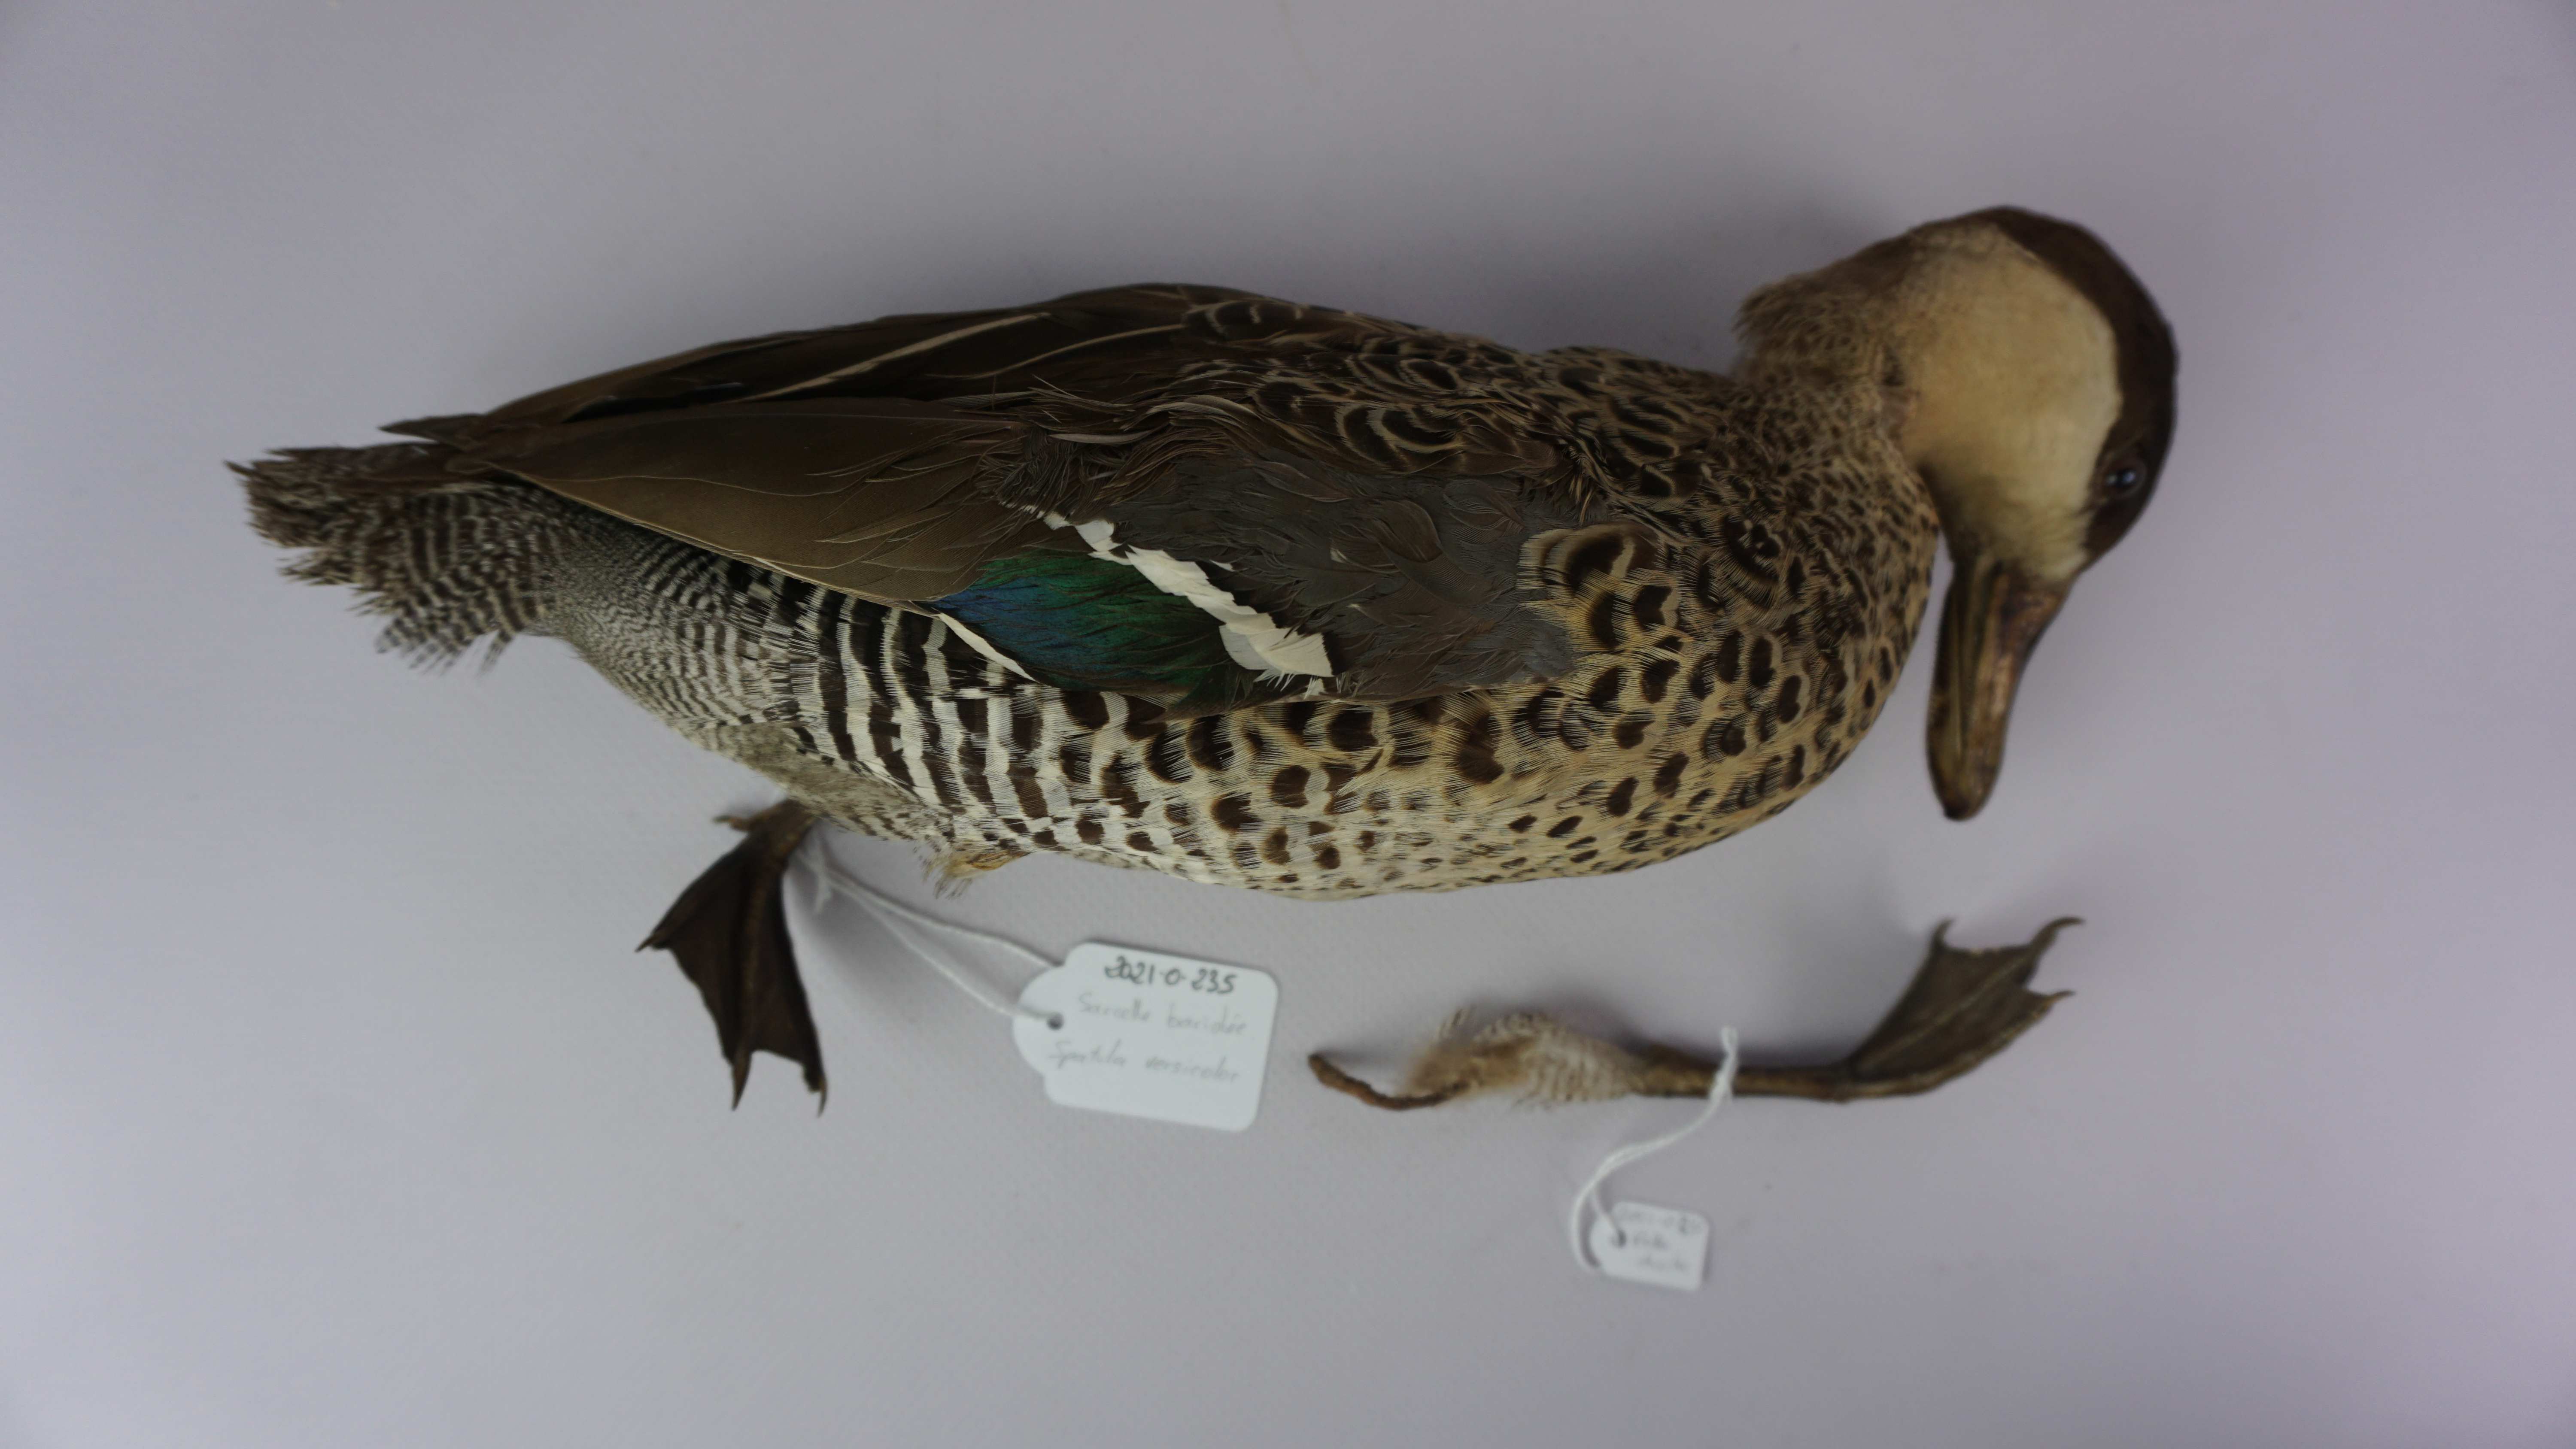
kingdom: Animalia
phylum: Chordata
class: Aves
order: Anseriformes
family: Anatidae
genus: Spatula
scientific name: Spatula versicolor
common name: Silver teal
